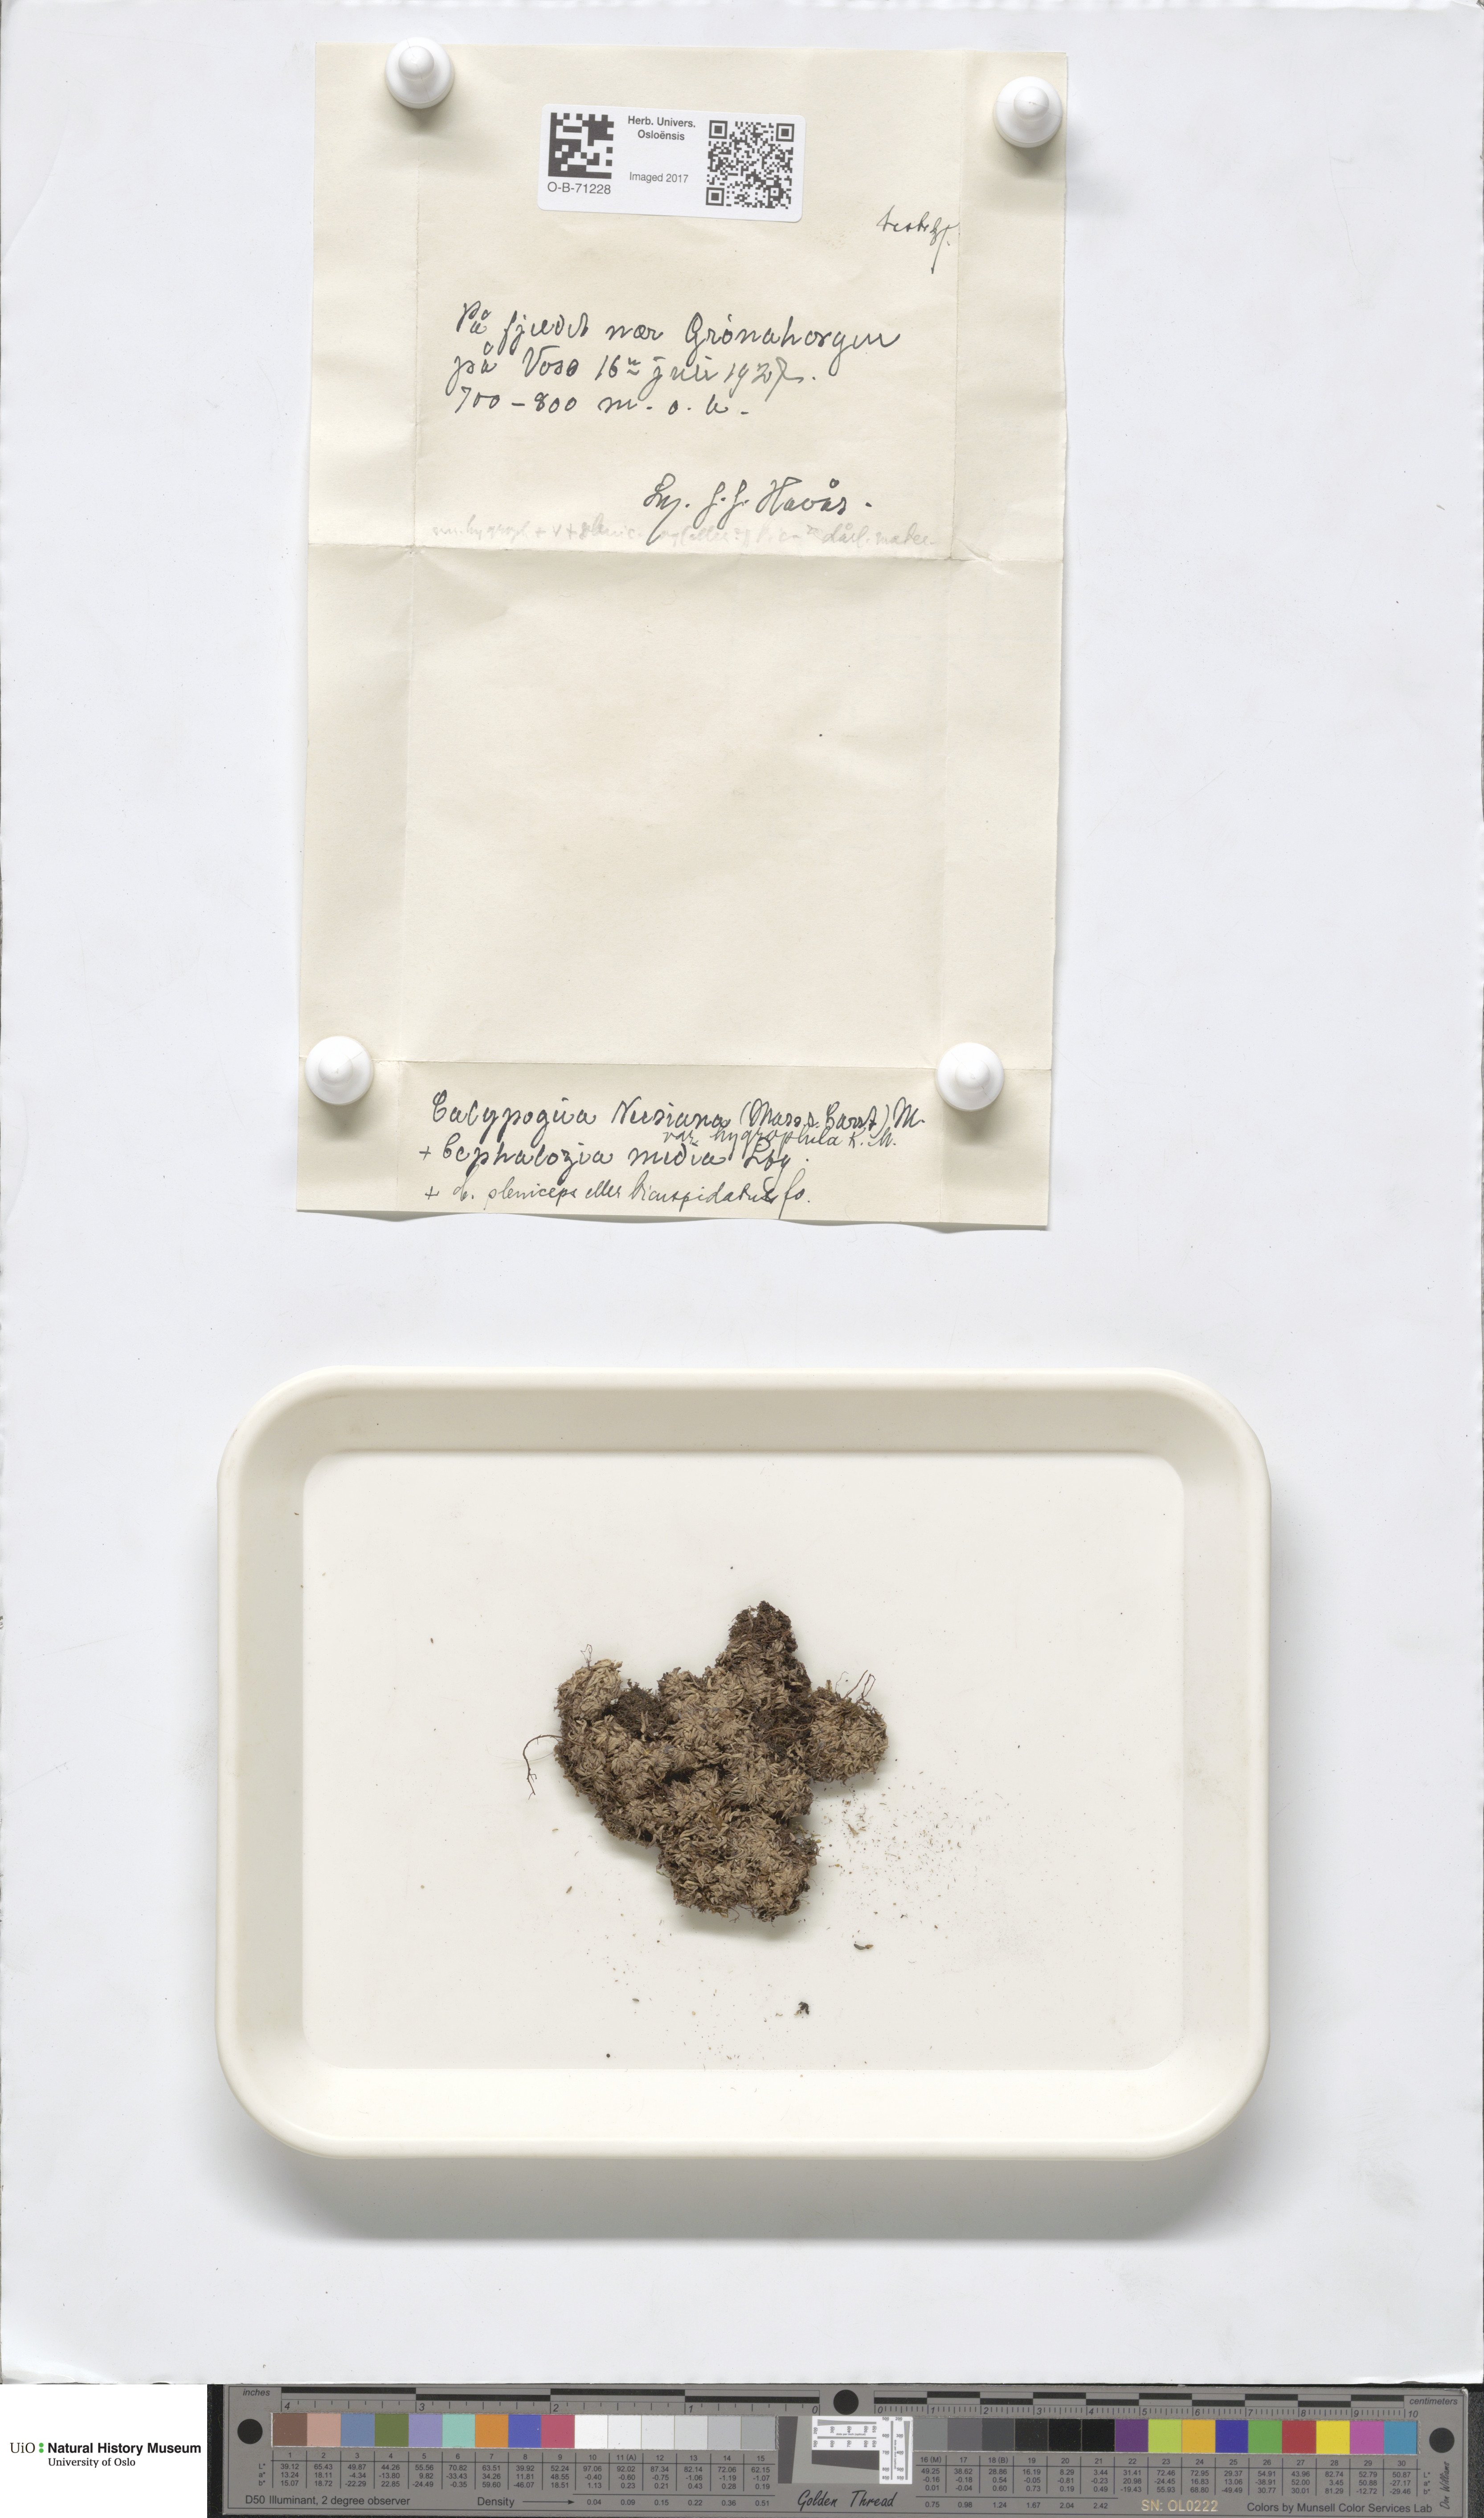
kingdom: Plantae
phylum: Marchantiophyta
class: Jungermanniopsida
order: Jungermanniales
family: Calypogeiaceae
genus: Calypogeia
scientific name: Calypogeia neesiana
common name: Nees  pouchwort
